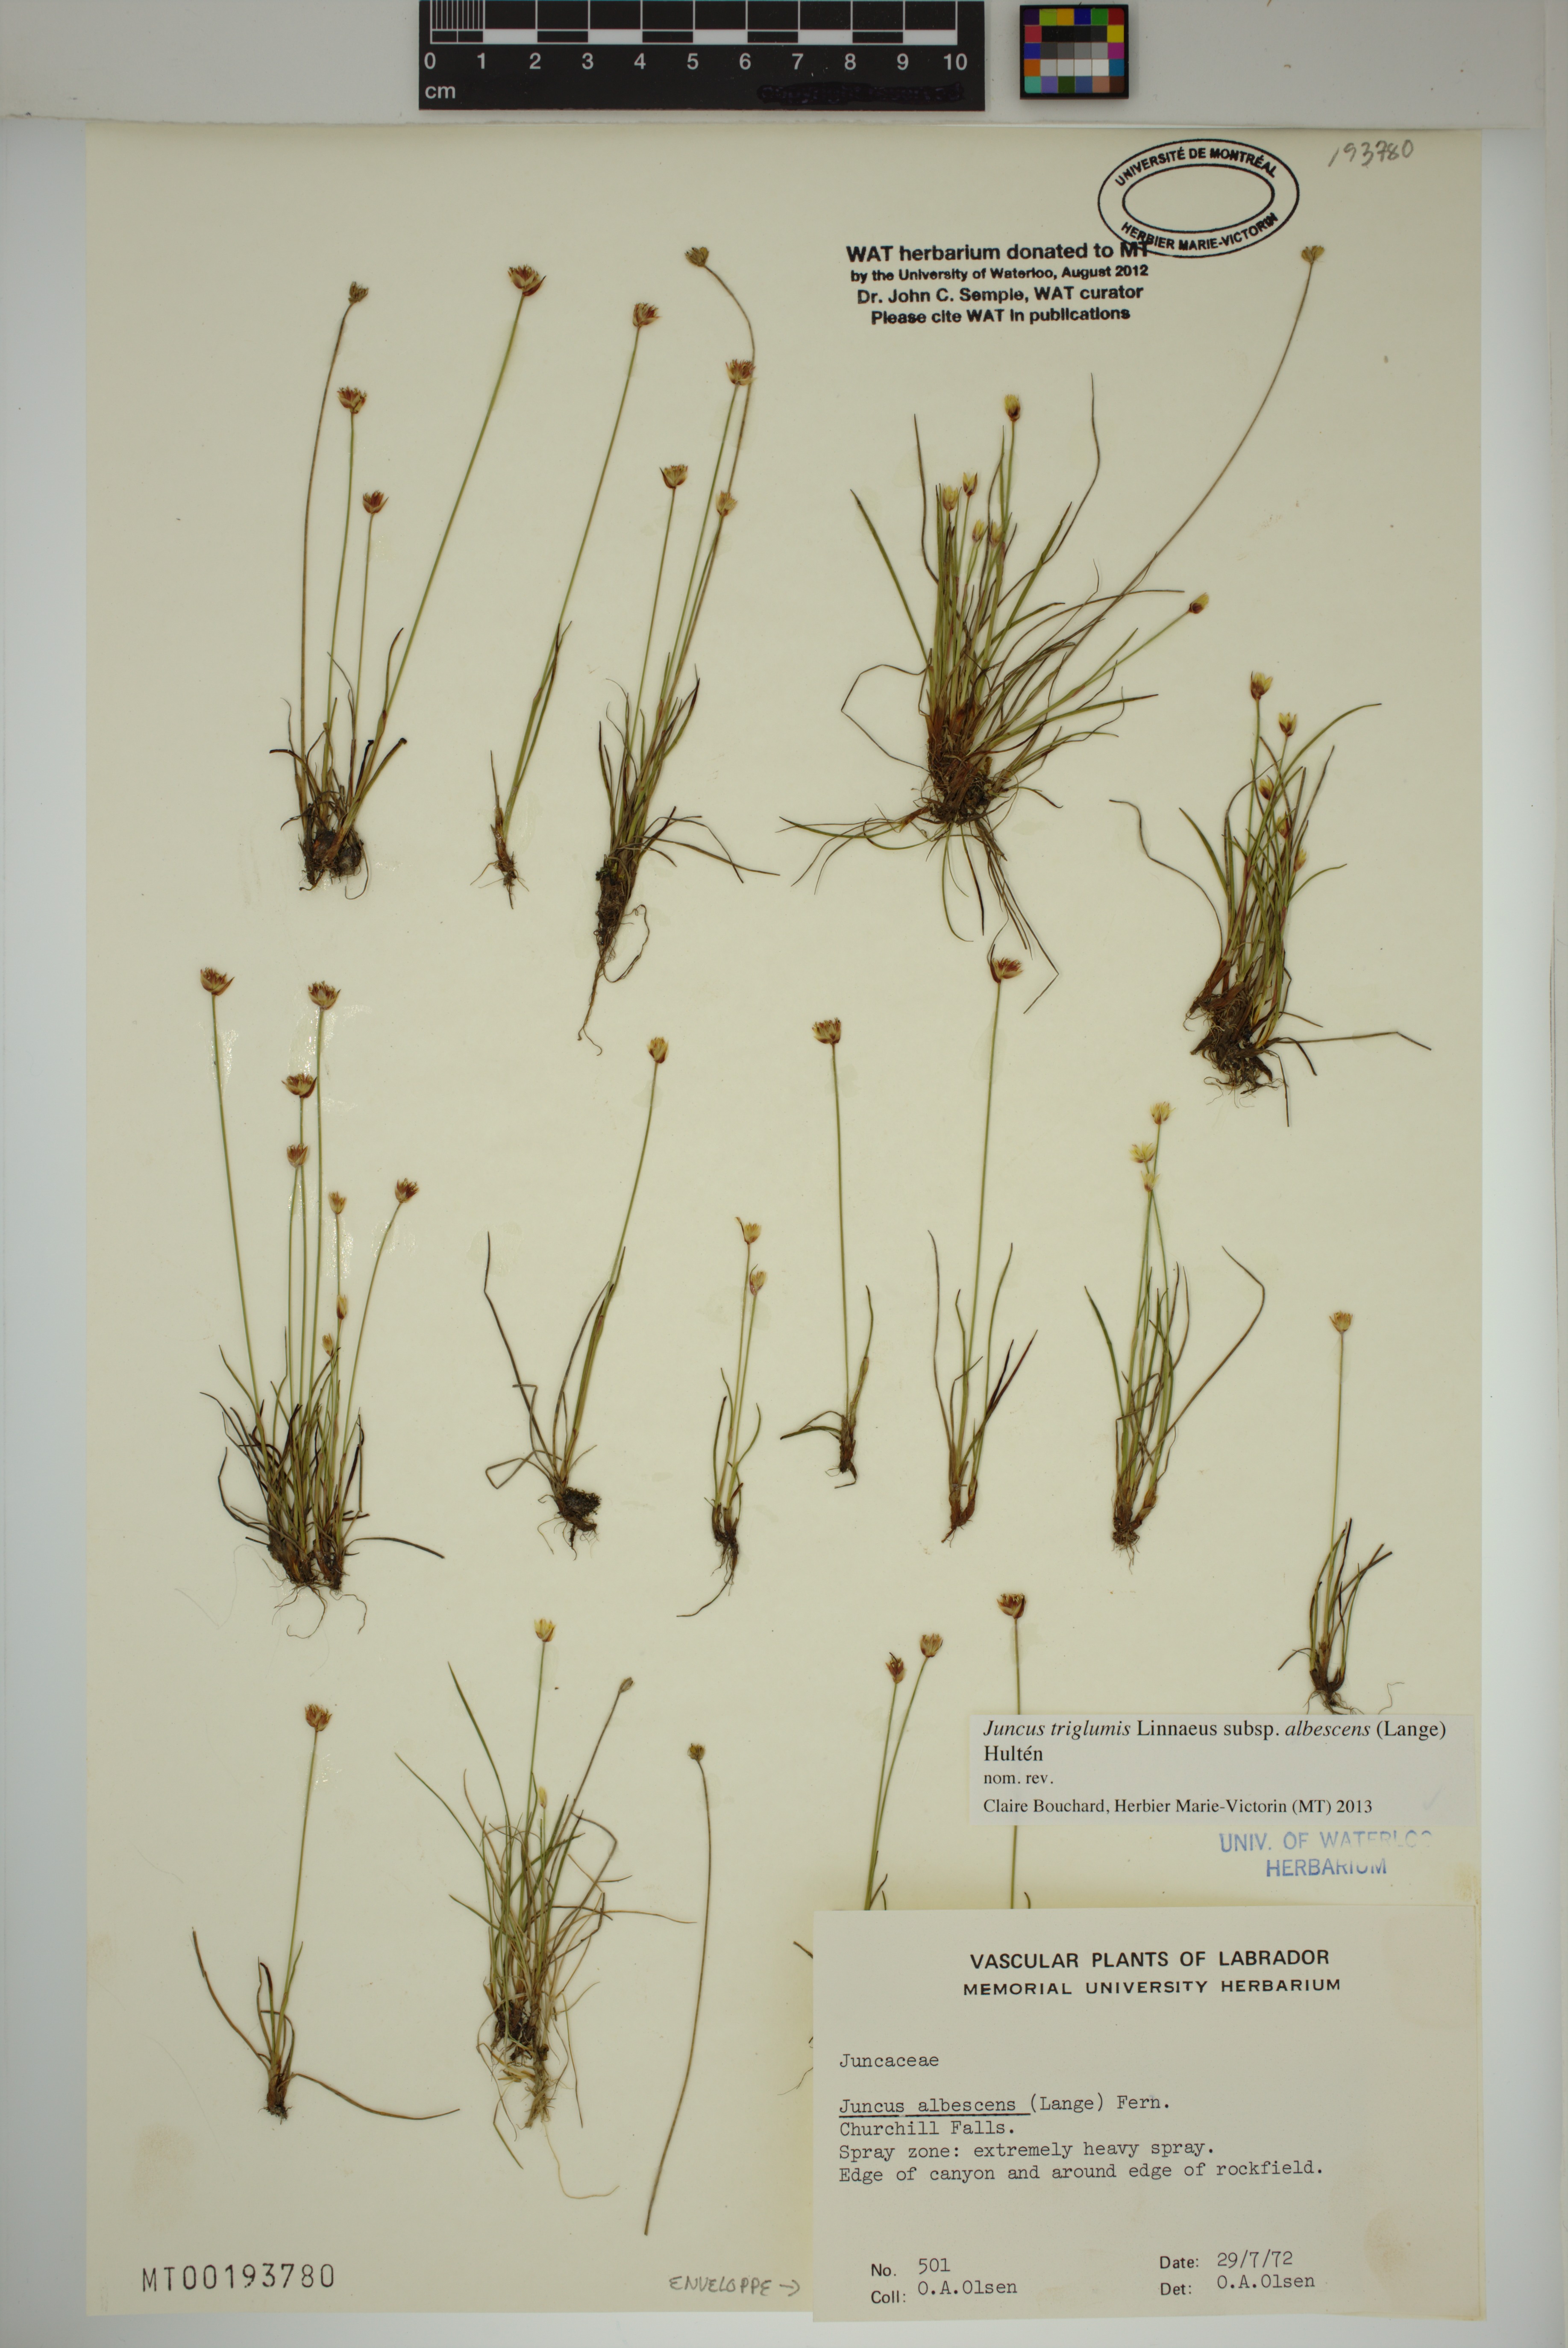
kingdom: Plantae
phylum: Tracheophyta
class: Liliopsida
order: Poales
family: Juncaceae
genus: Juncus
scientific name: Juncus albescens
